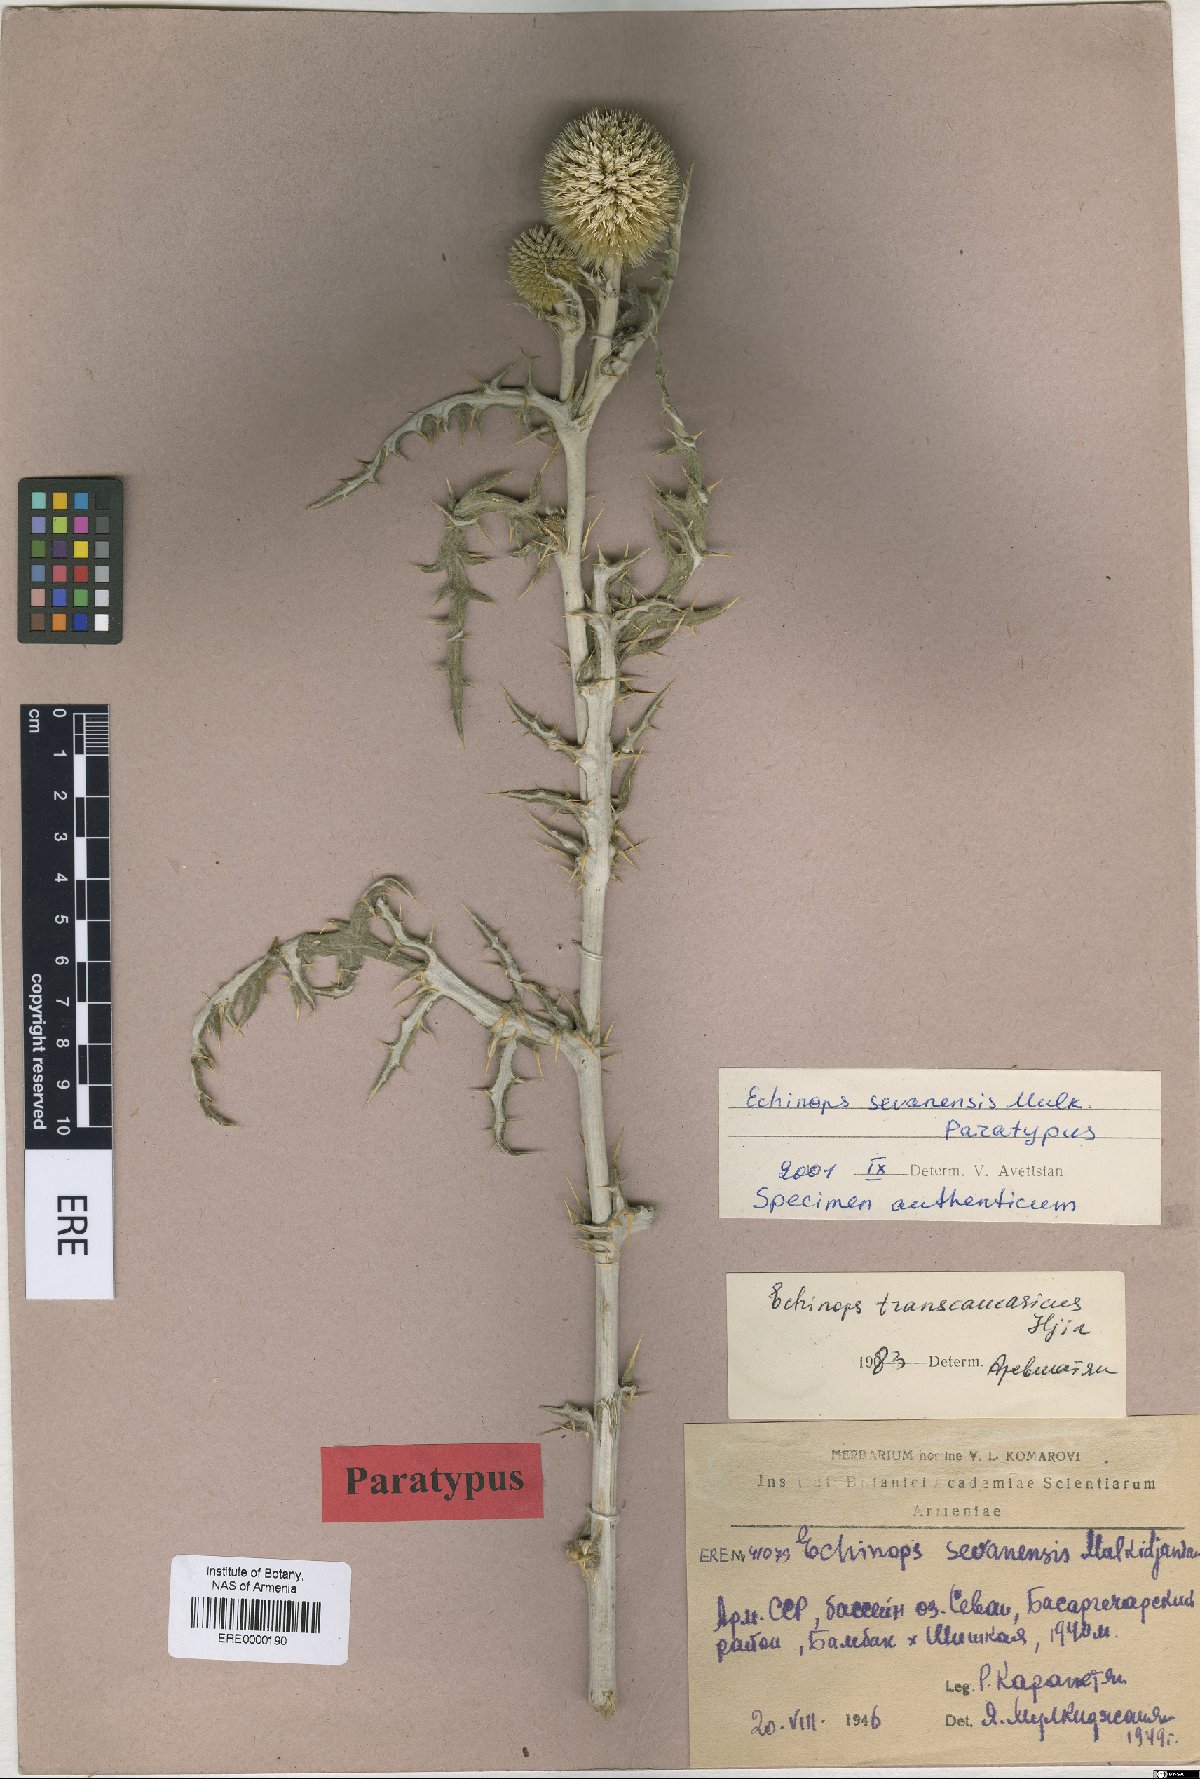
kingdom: Plantae
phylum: Tracheophyta
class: Magnoliopsida
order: Asterales
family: Asteraceae
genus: Echinops
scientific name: Echinops transcaucasicus
